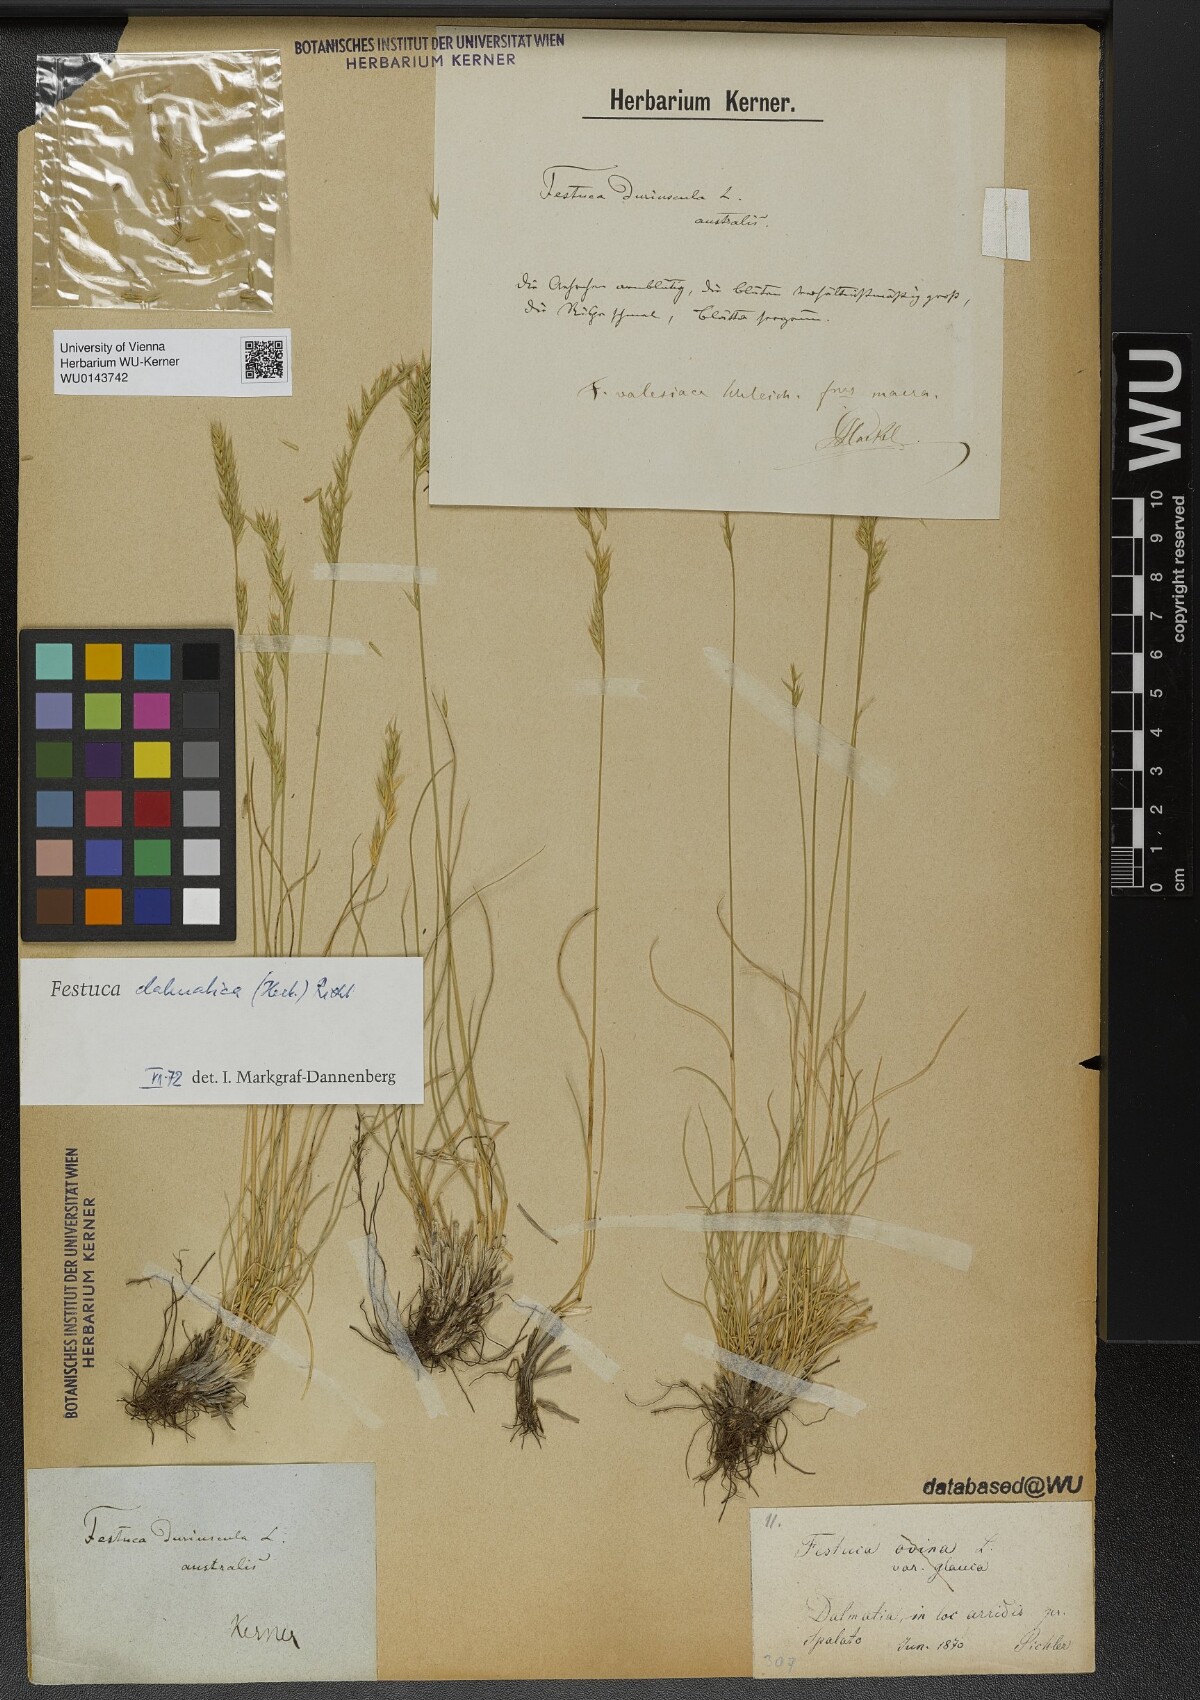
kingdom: Plantae
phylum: Tracheophyta
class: Liliopsida
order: Poales
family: Poaceae
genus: Festuca
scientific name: Festuca dalmatica
